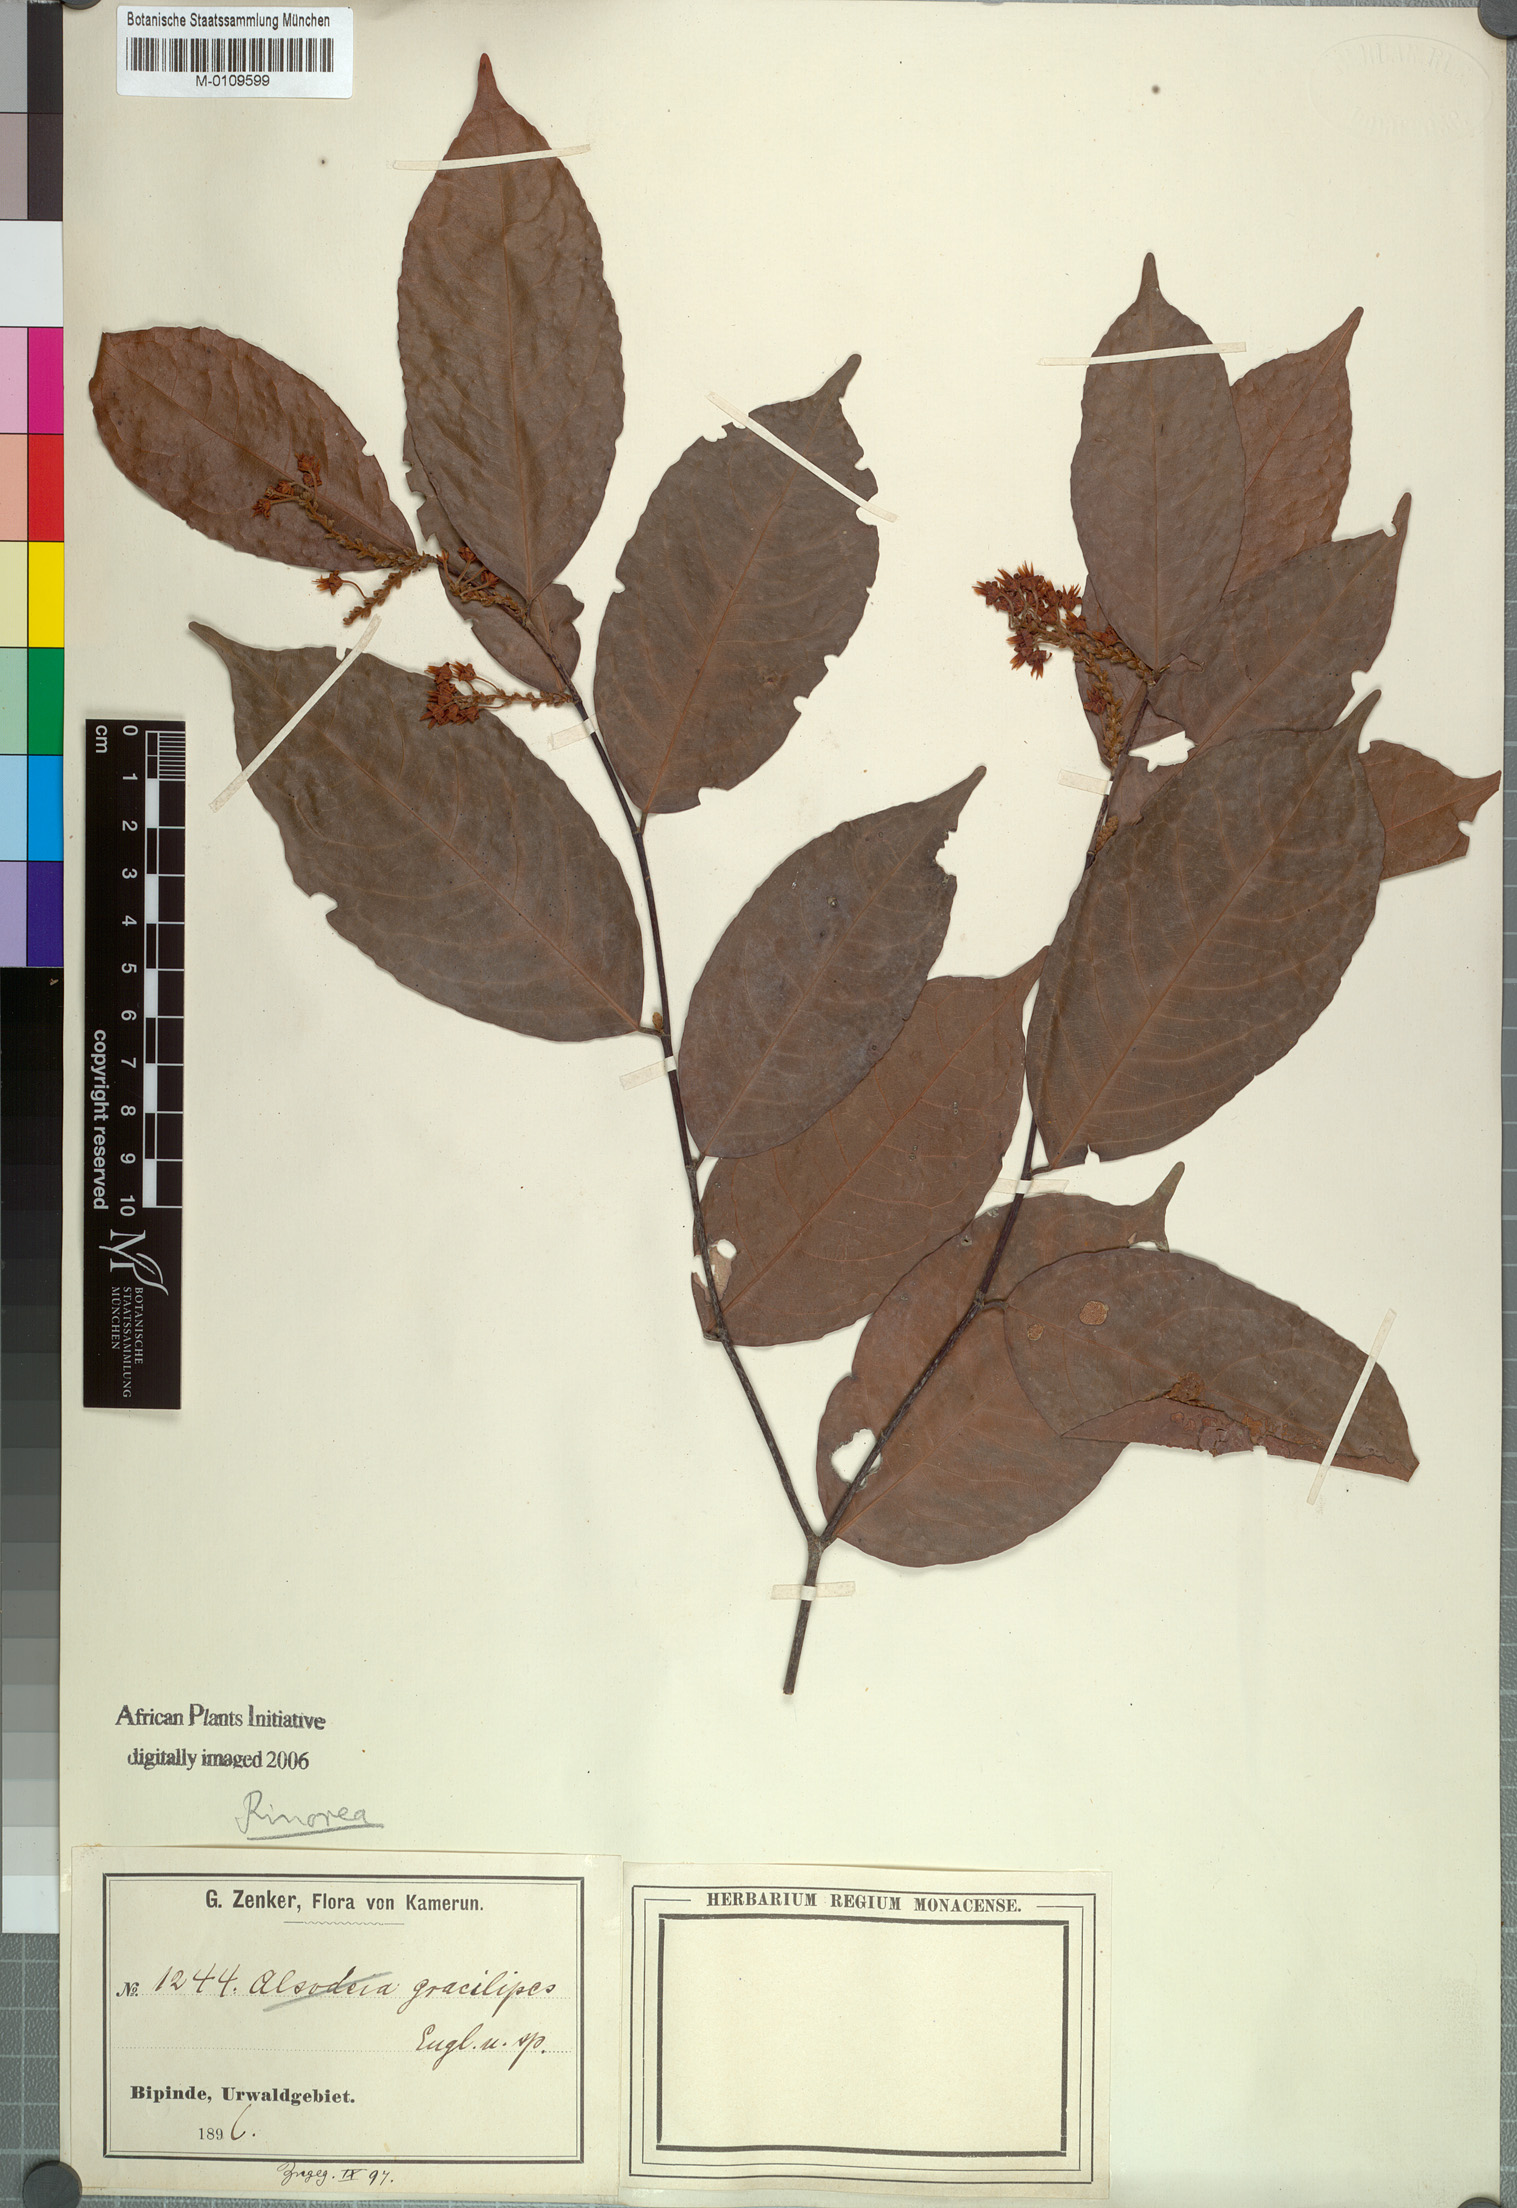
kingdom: Plantae
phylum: Tracheophyta
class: Magnoliopsida
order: Malpighiales
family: Violaceae
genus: Rinorea
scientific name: Rinorea angustifolia
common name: White violet-bush
